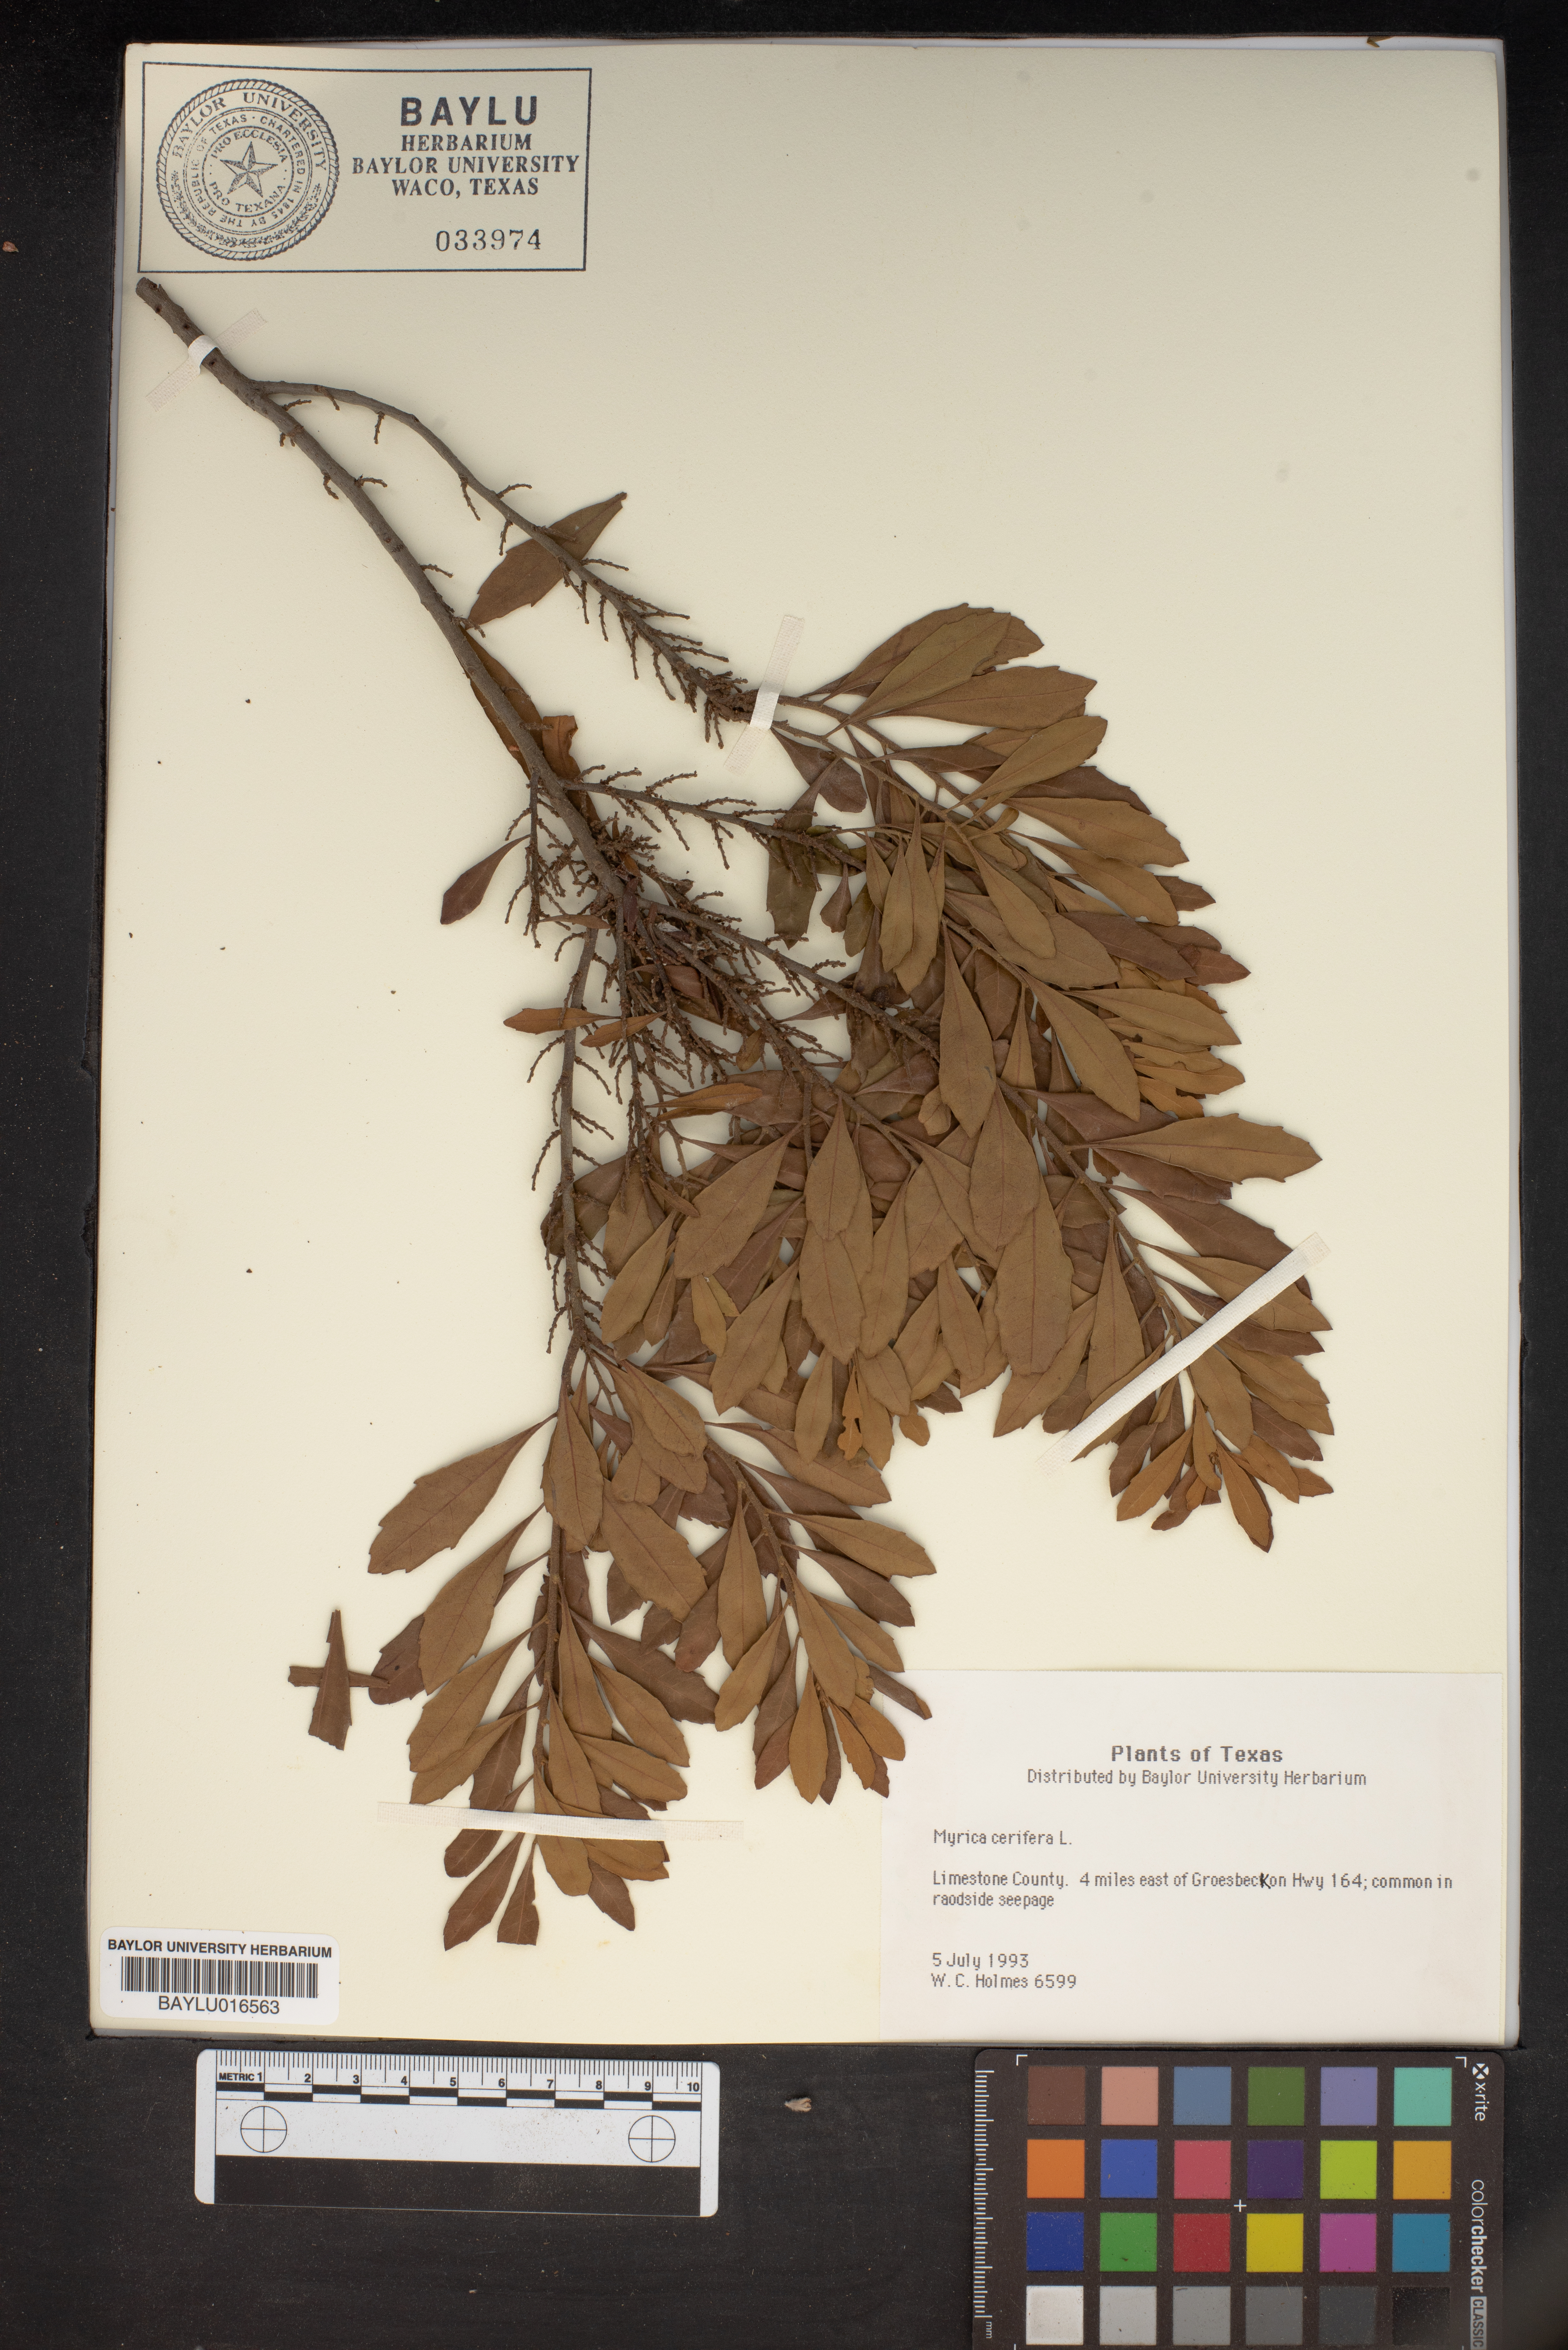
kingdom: Plantae
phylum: Tracheophyta
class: Magnoliopsida
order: Fagales
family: Myricaceae
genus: Morella
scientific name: Morella cerifera
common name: Wax myrtle
